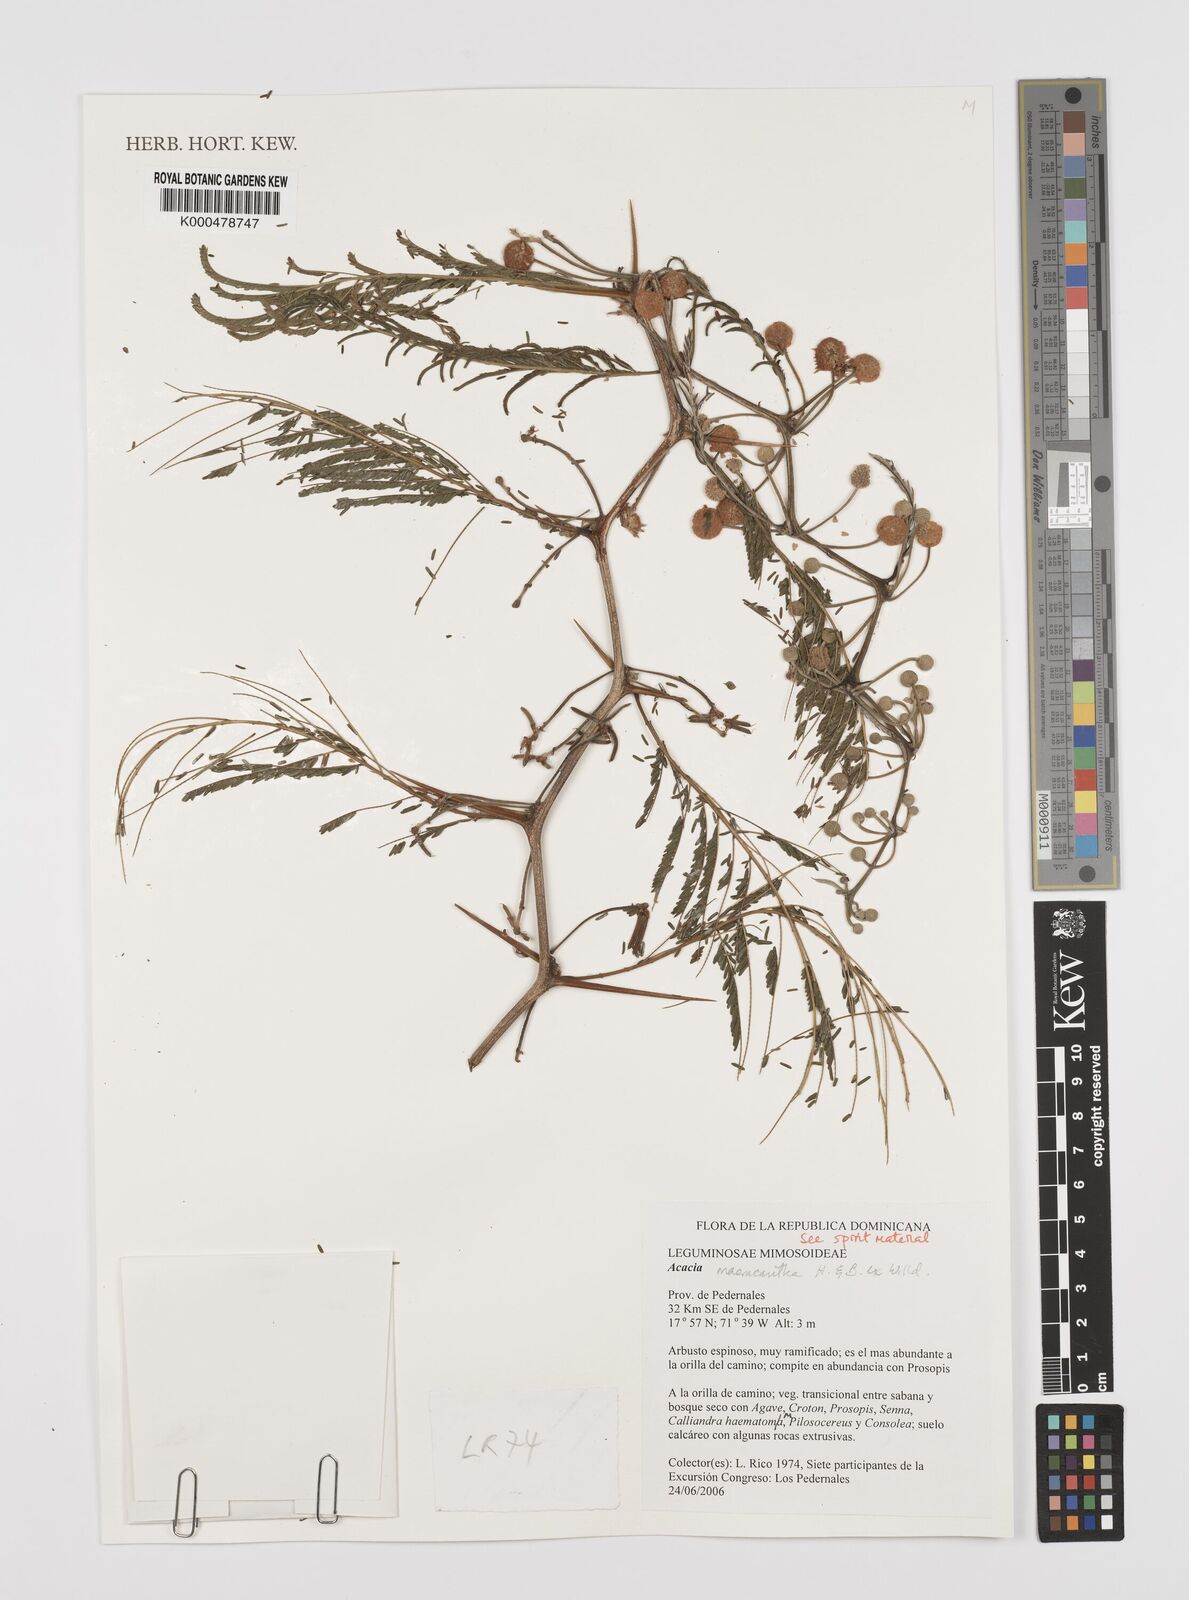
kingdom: Plantae
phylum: Tracheophyta
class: Magnoliopsida
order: Fabales
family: Fabaceae
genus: Vachellia
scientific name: Vachellia macracantha
